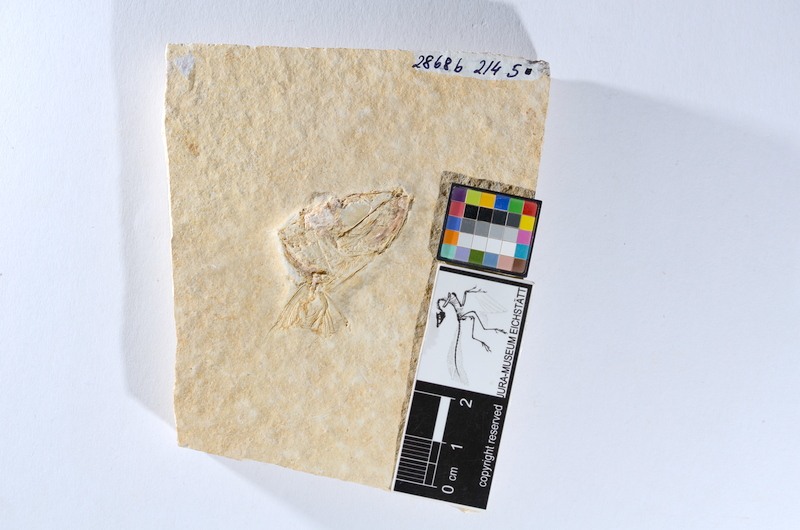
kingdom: Animalia
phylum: Chordata
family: Ascalaboidae
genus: Tharsis
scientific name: Tharsis dubius
